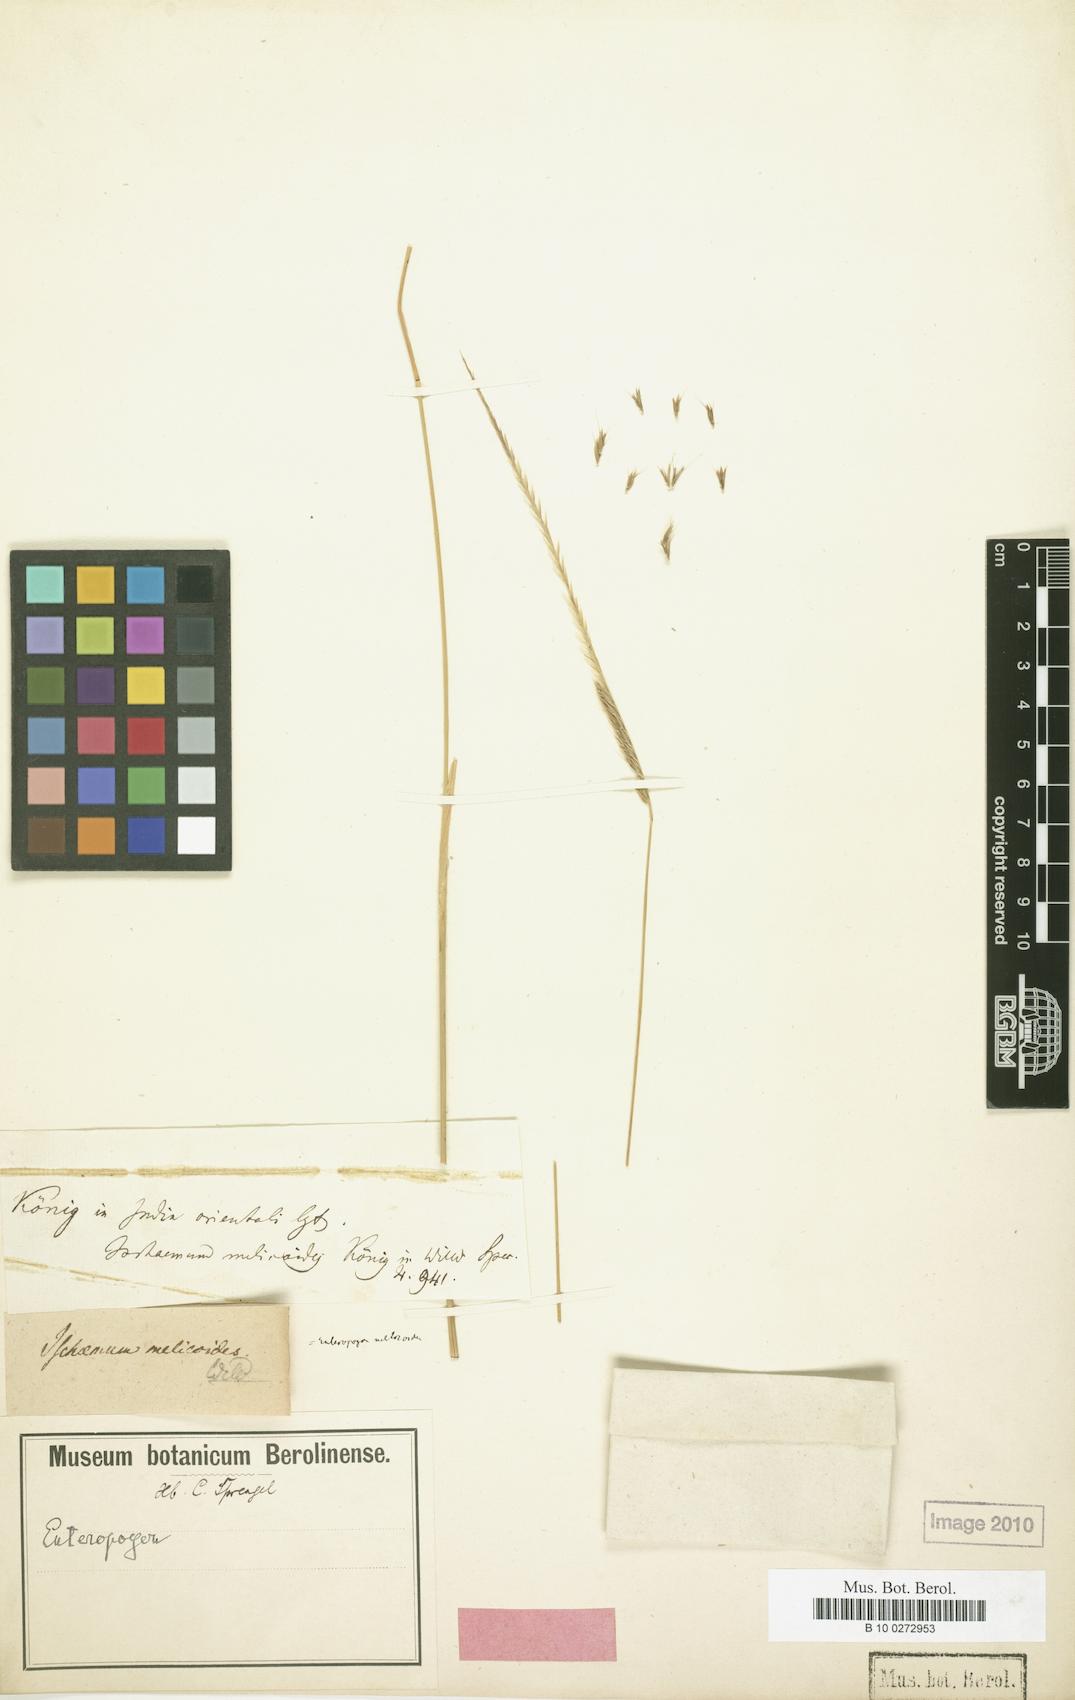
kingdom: Plantae
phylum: Tracheophyta
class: Liliopsida
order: Poales
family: Poaceae
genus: Enteropogon
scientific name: Enteropogon monostachyos
